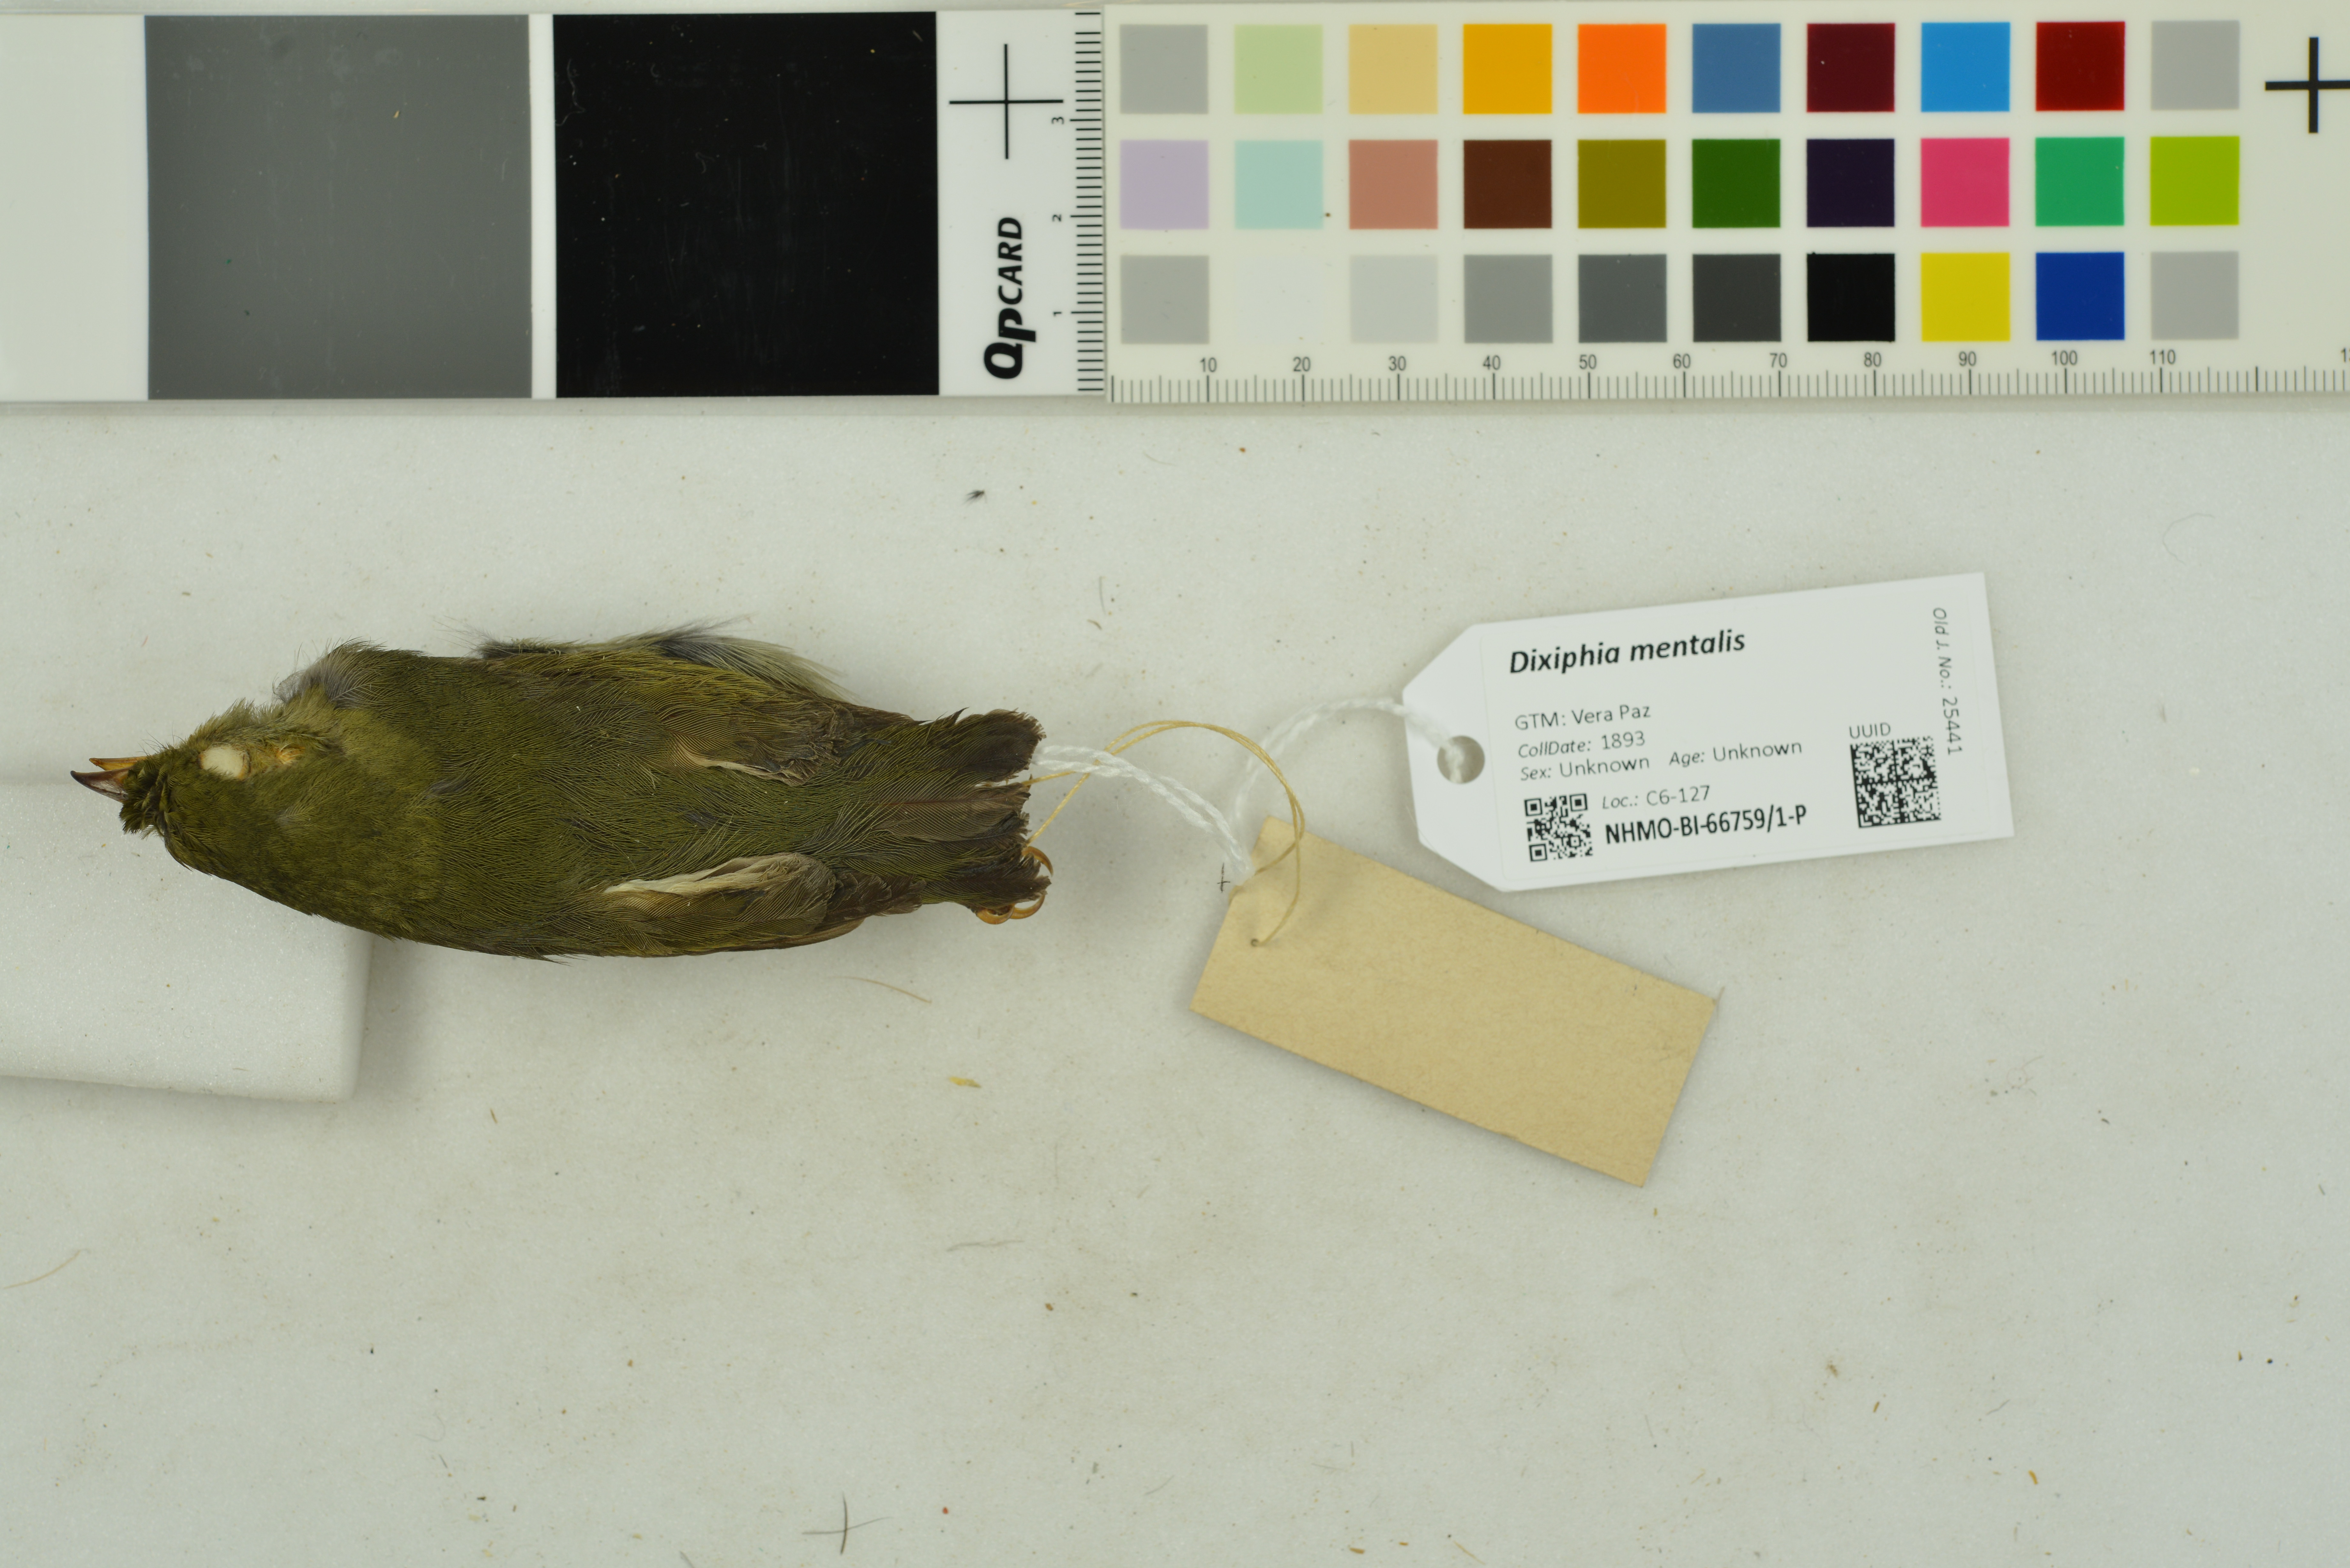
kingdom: Animalia
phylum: Chordata
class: Aves
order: Passeriformes
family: Pipridae
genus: Pipra
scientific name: Pipra mentalis
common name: Red-capped manakin
